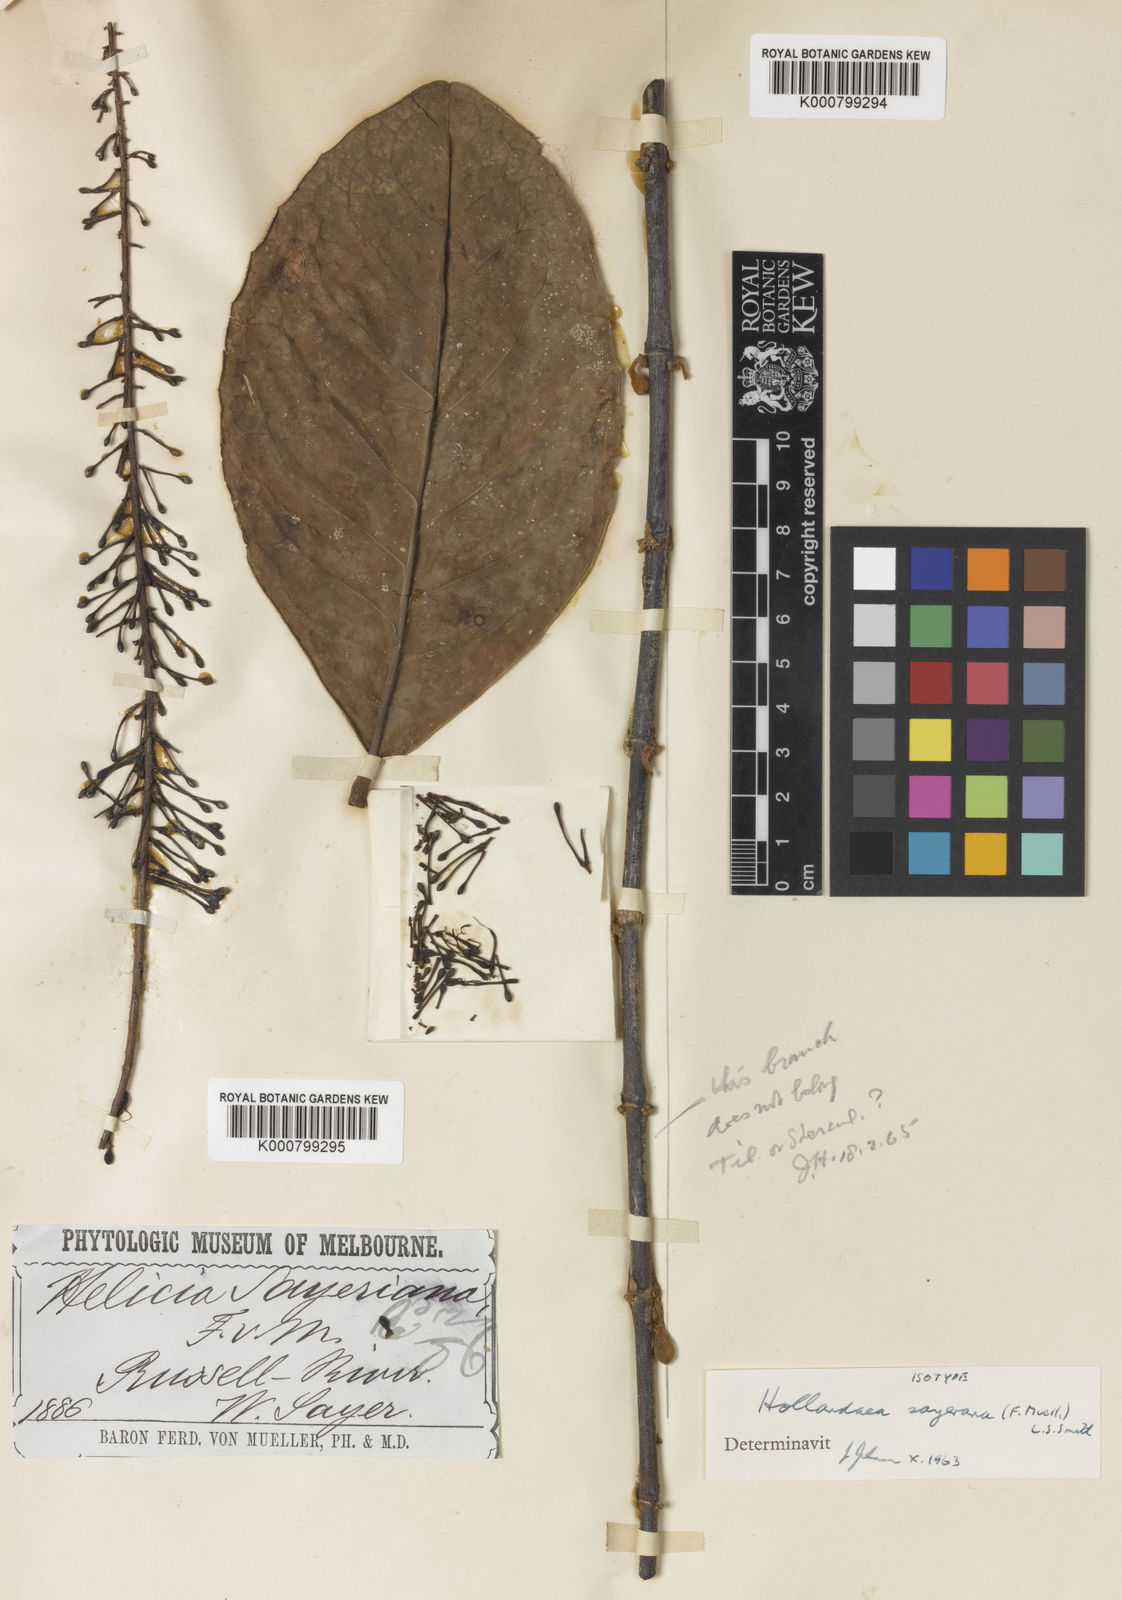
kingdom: Plantae
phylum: Tracheophyta
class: Magnoliopsida
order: Proteales
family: Proteaceae
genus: Hollandaea
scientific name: Hollandaea sayeriana
